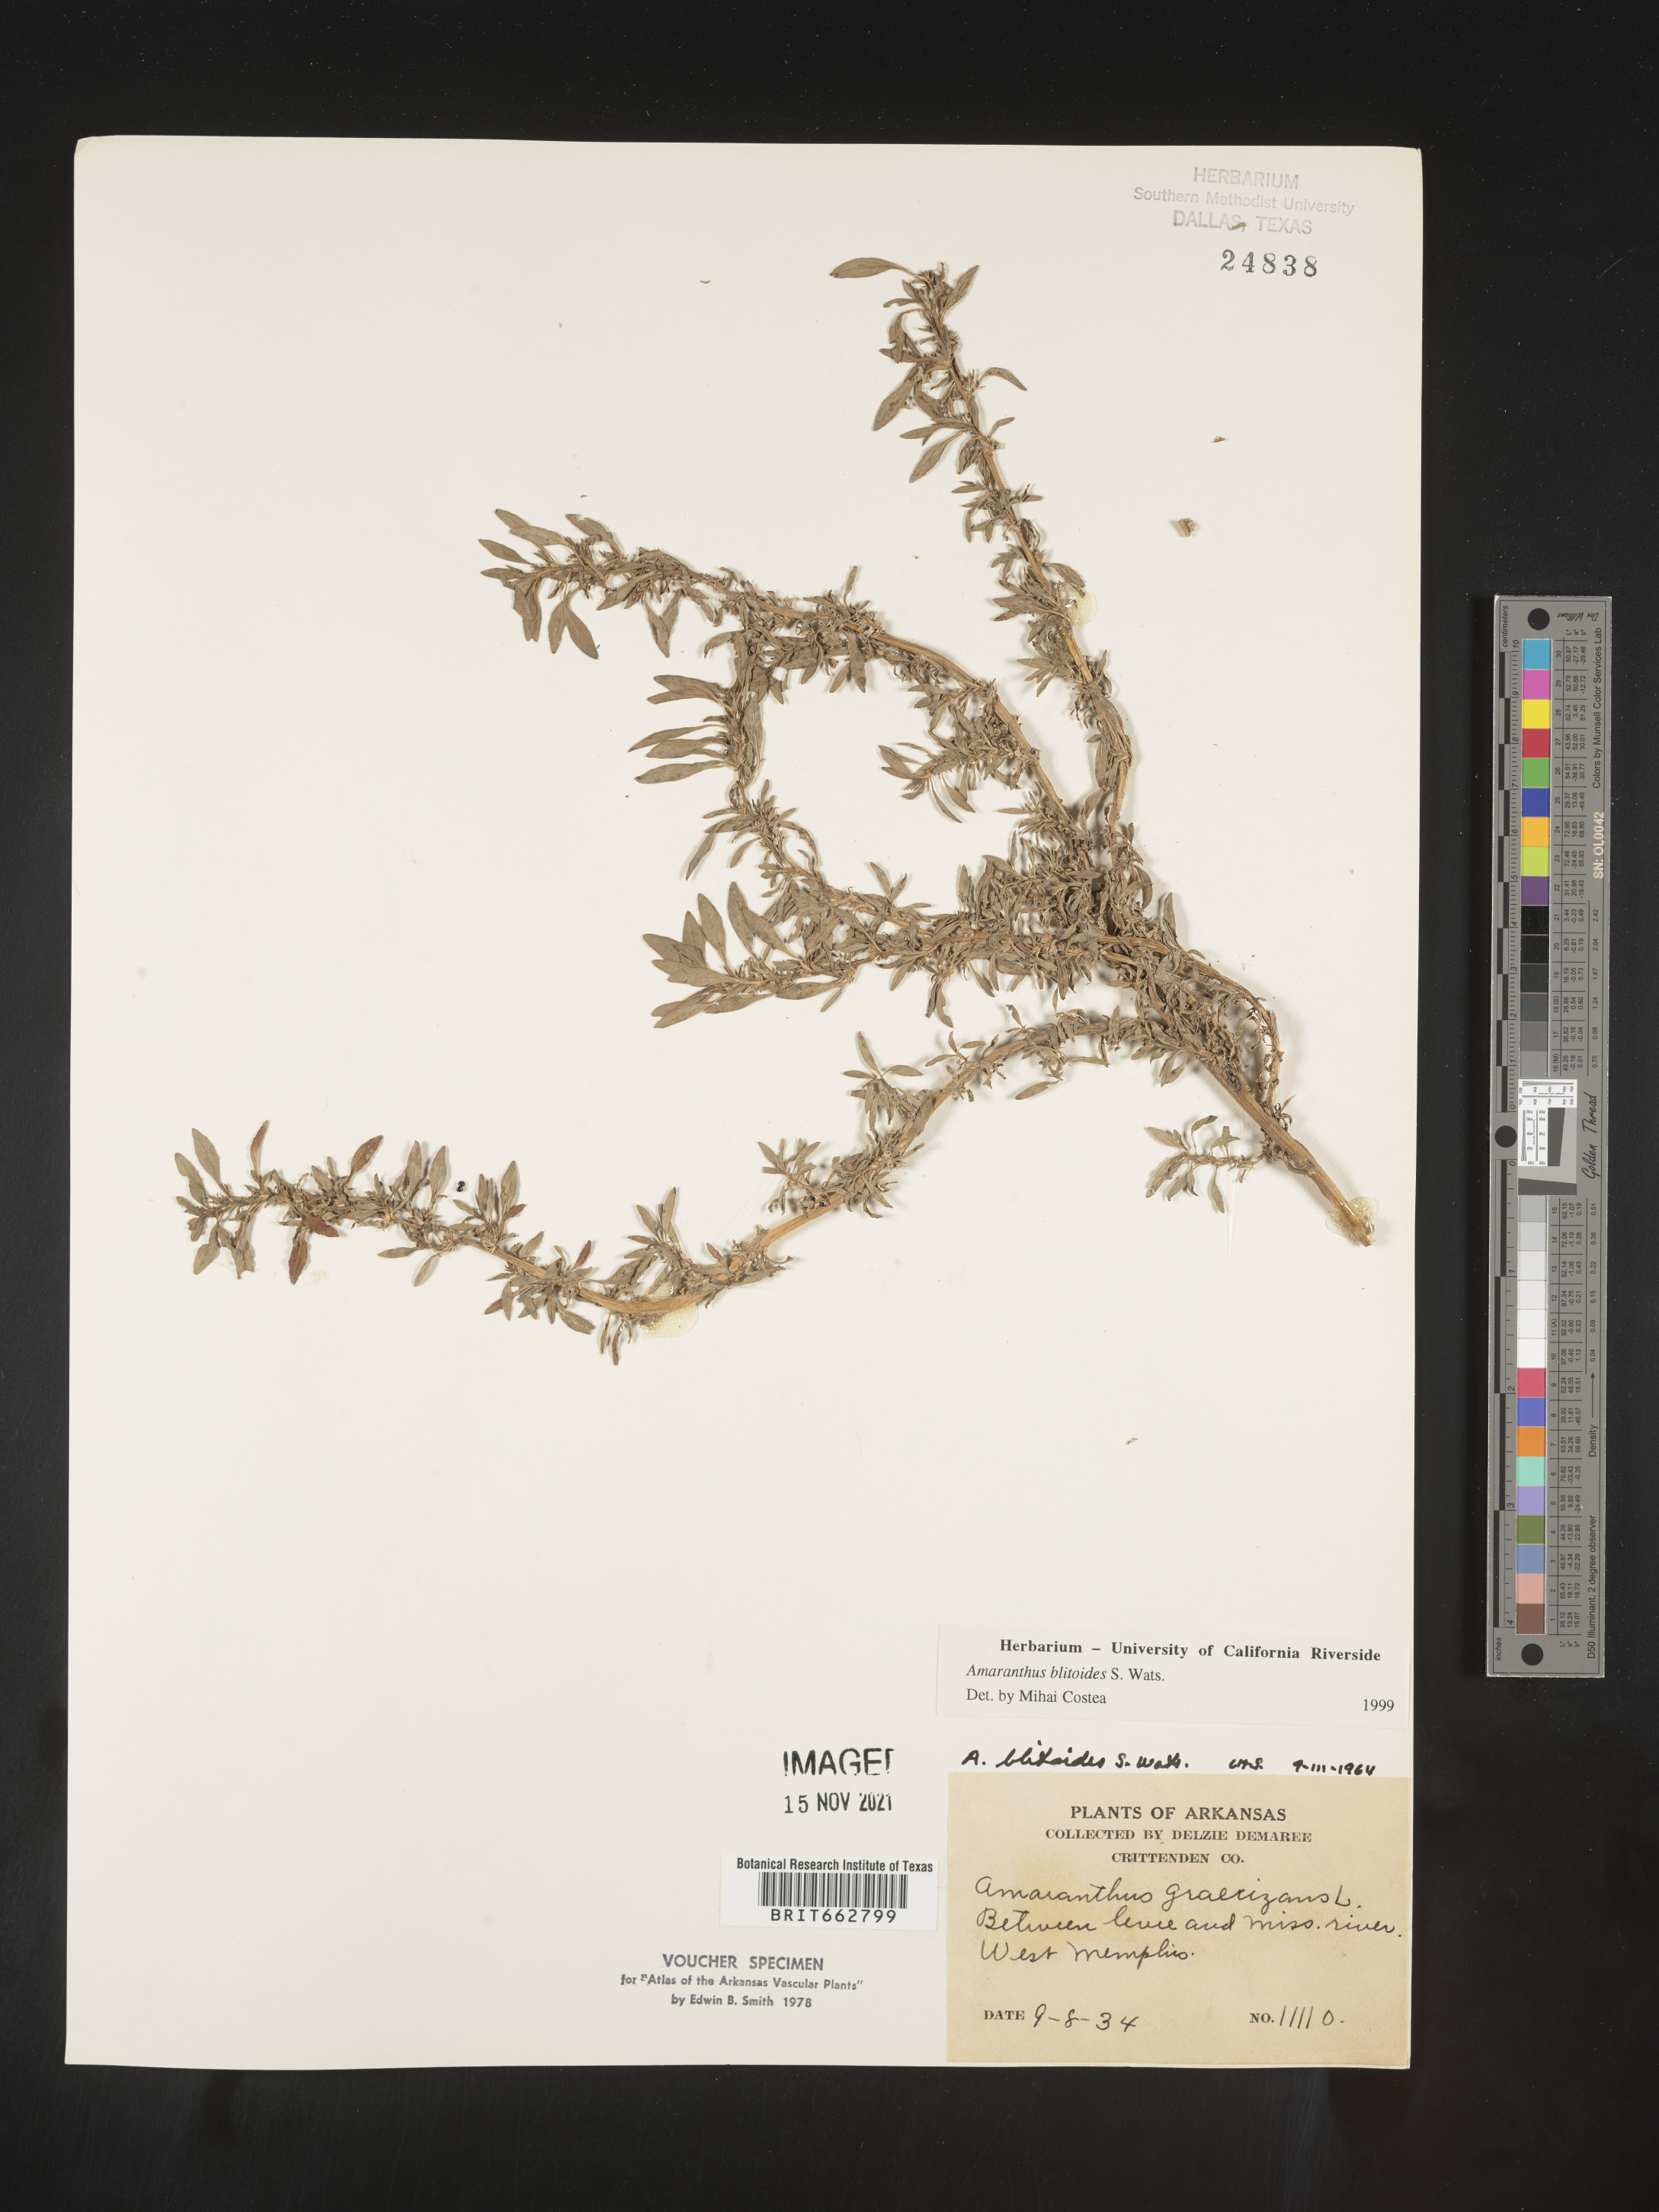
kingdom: Plantae
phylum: Tracheophyta
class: Magnoliopsida
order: Caryophyllales
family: Amaranthaceae
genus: Amaranthus
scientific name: Amaranthus blitoides
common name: Prostrate pigweed
